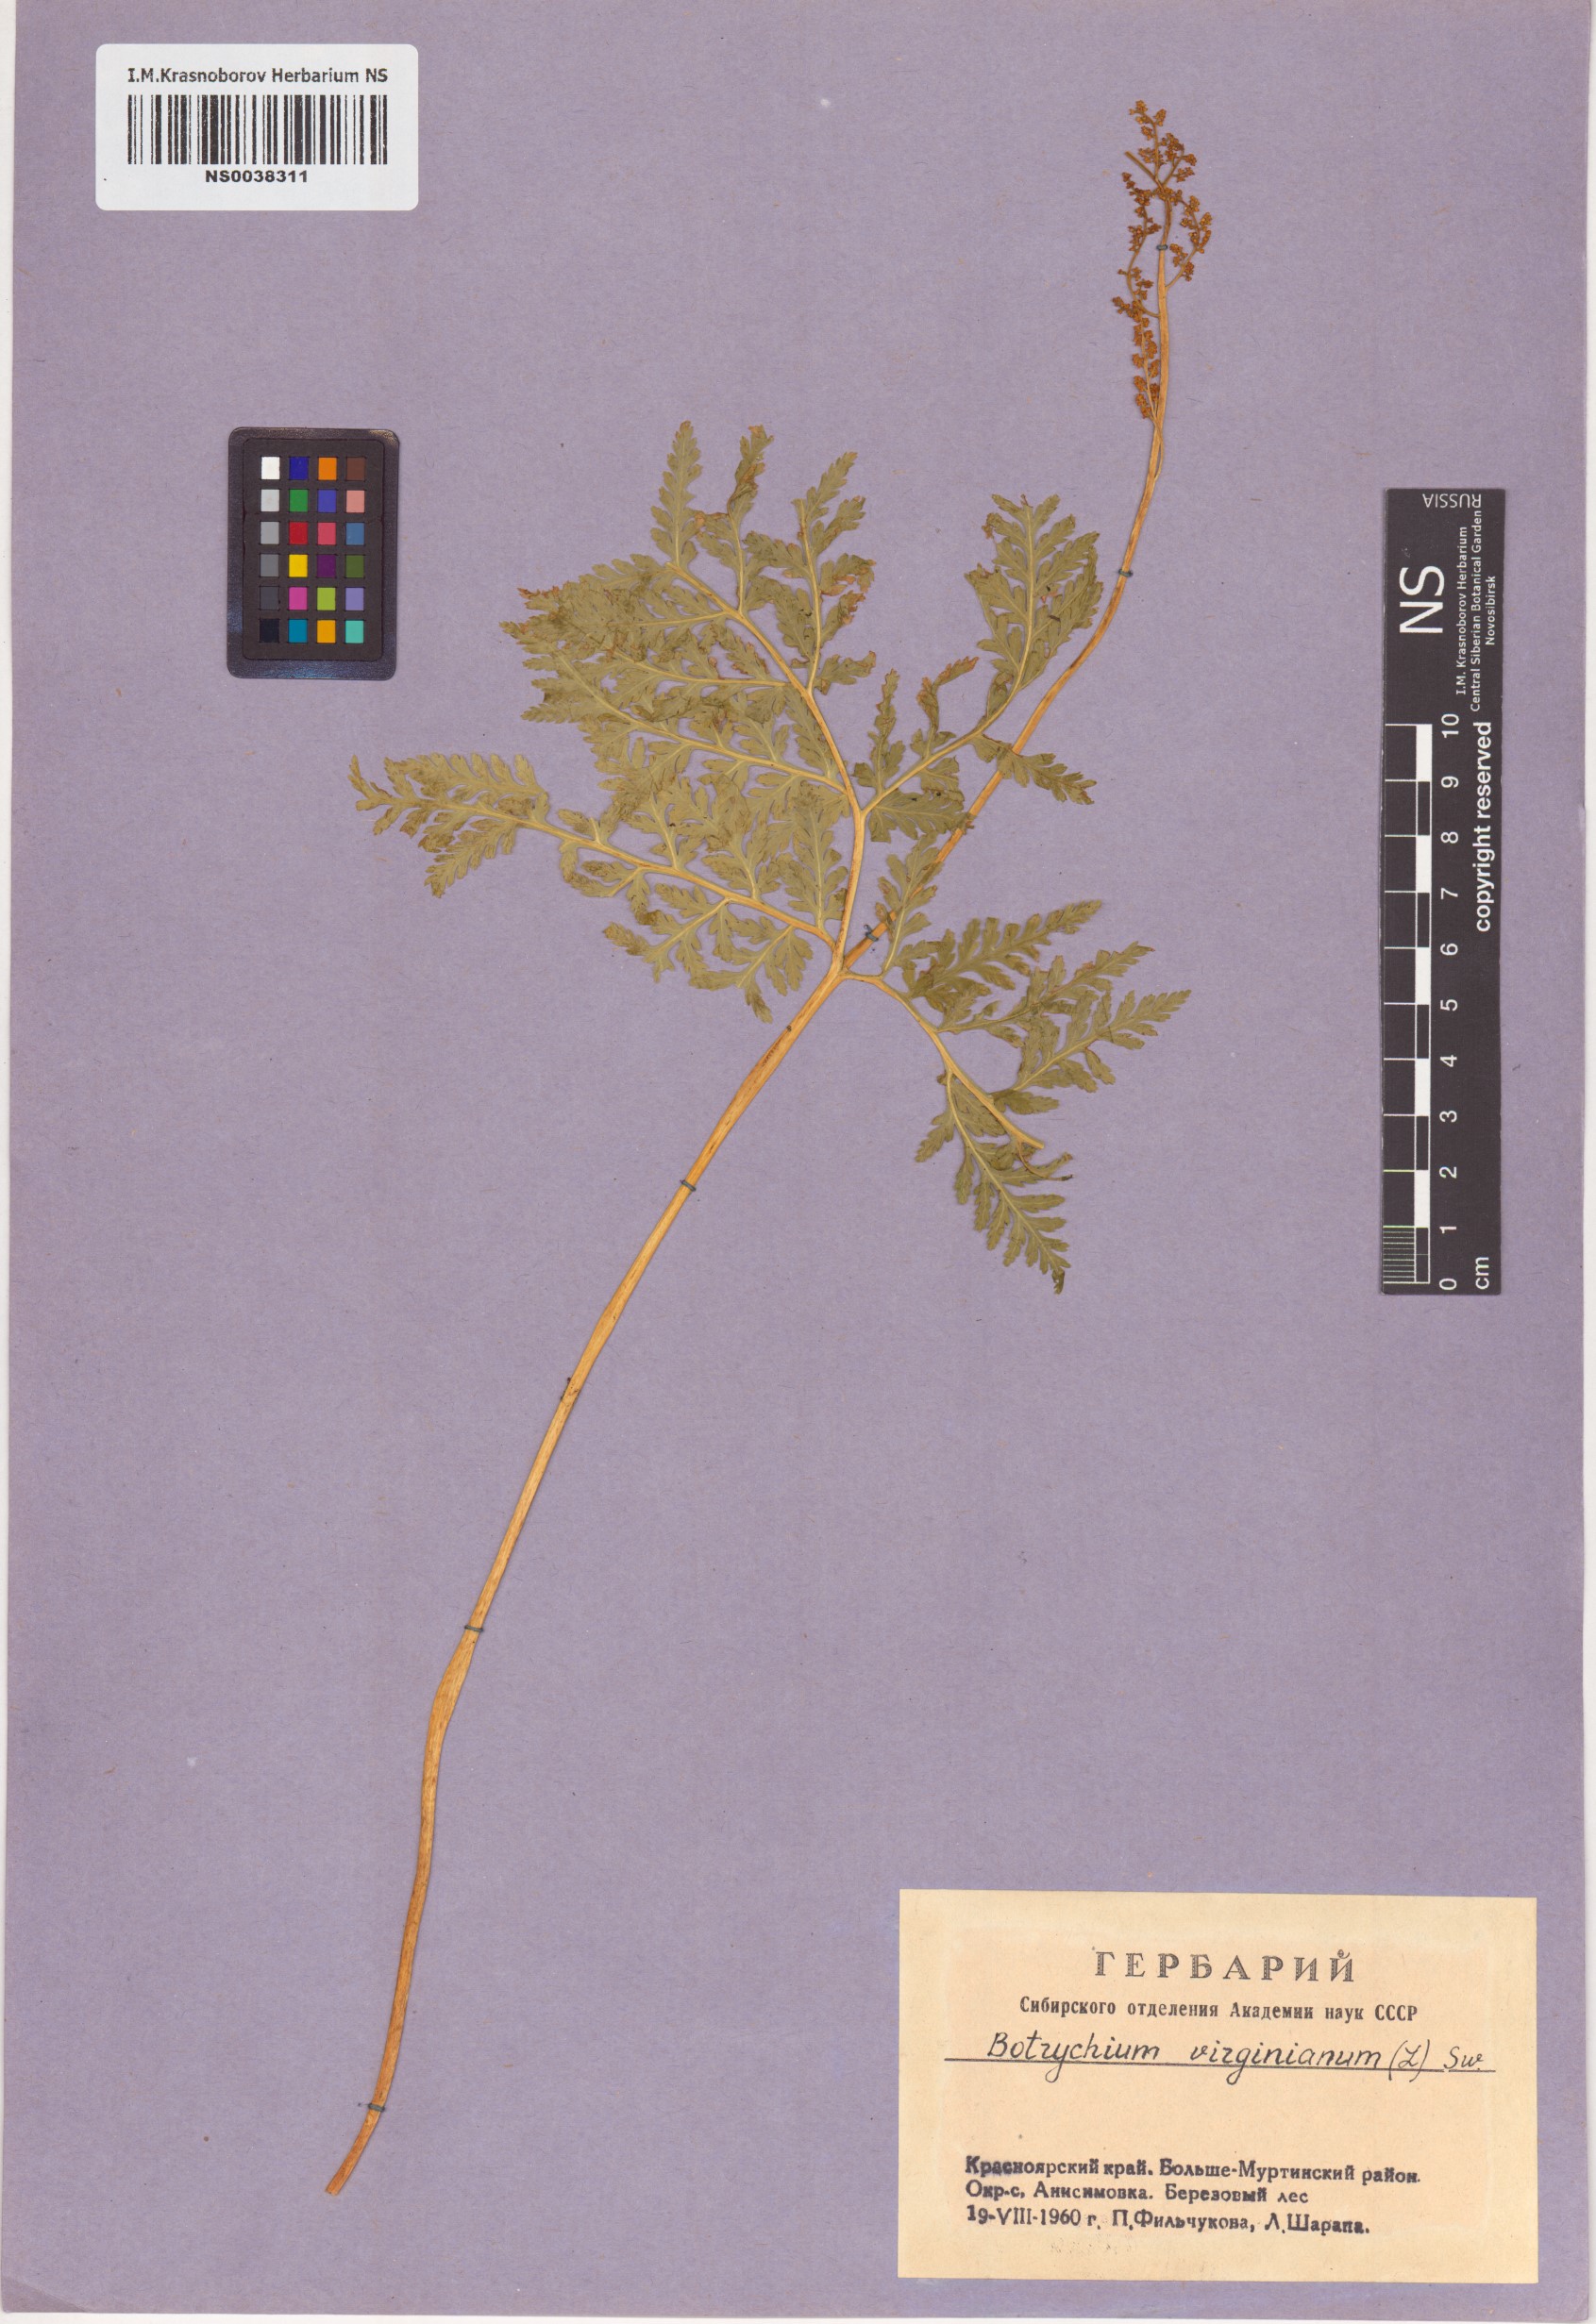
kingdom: Plantae
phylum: Tracheophyta
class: Polypodiopsida
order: Ophioglossales
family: Ophioglossaceae
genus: Botrypus
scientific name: Botrypus virginianus
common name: Common grapefern
